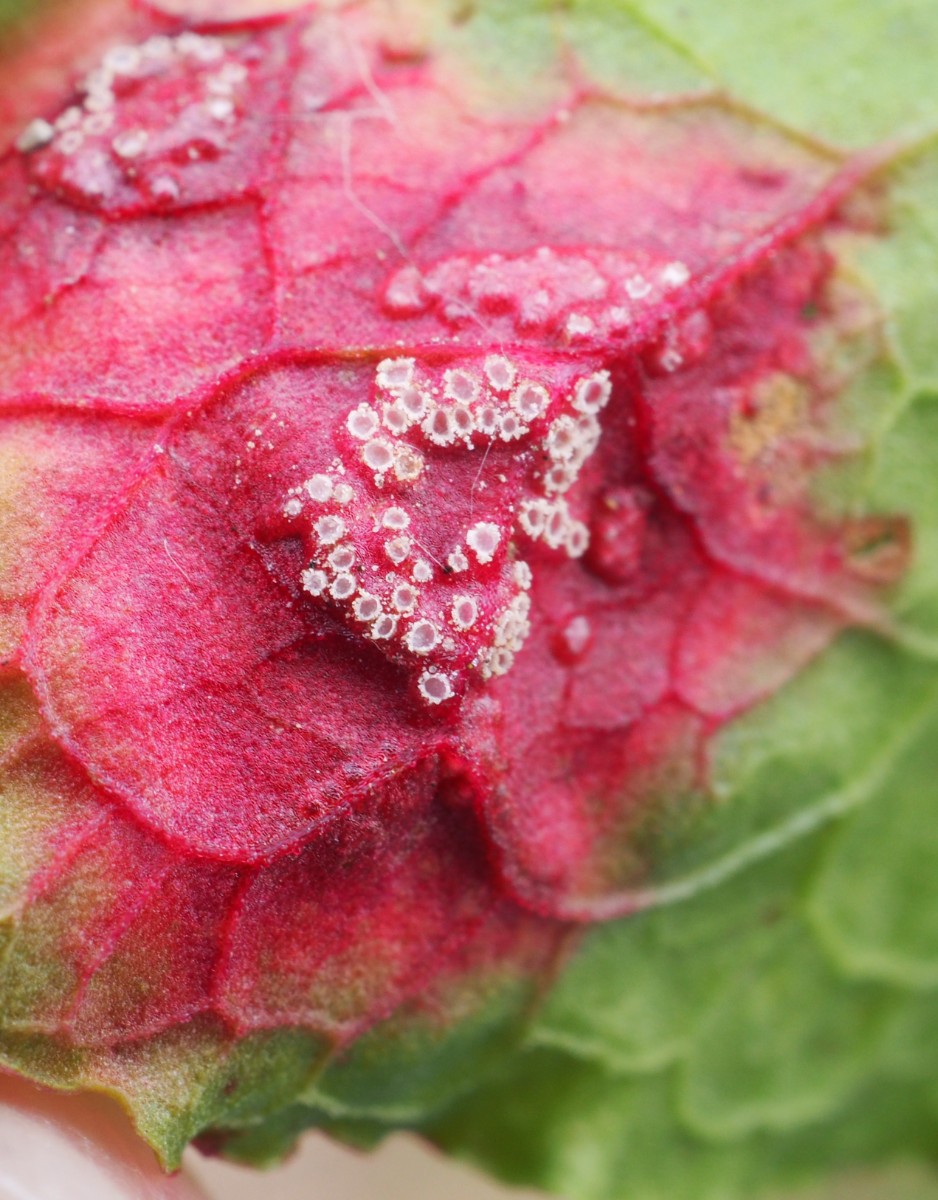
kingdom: Fungi
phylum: Basidiomycota
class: Pucciniomycetes
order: Pucciniales
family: Pucciniaceae
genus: Puccinia
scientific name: Puccinia phragmitis
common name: tagrør-tvecellerust
